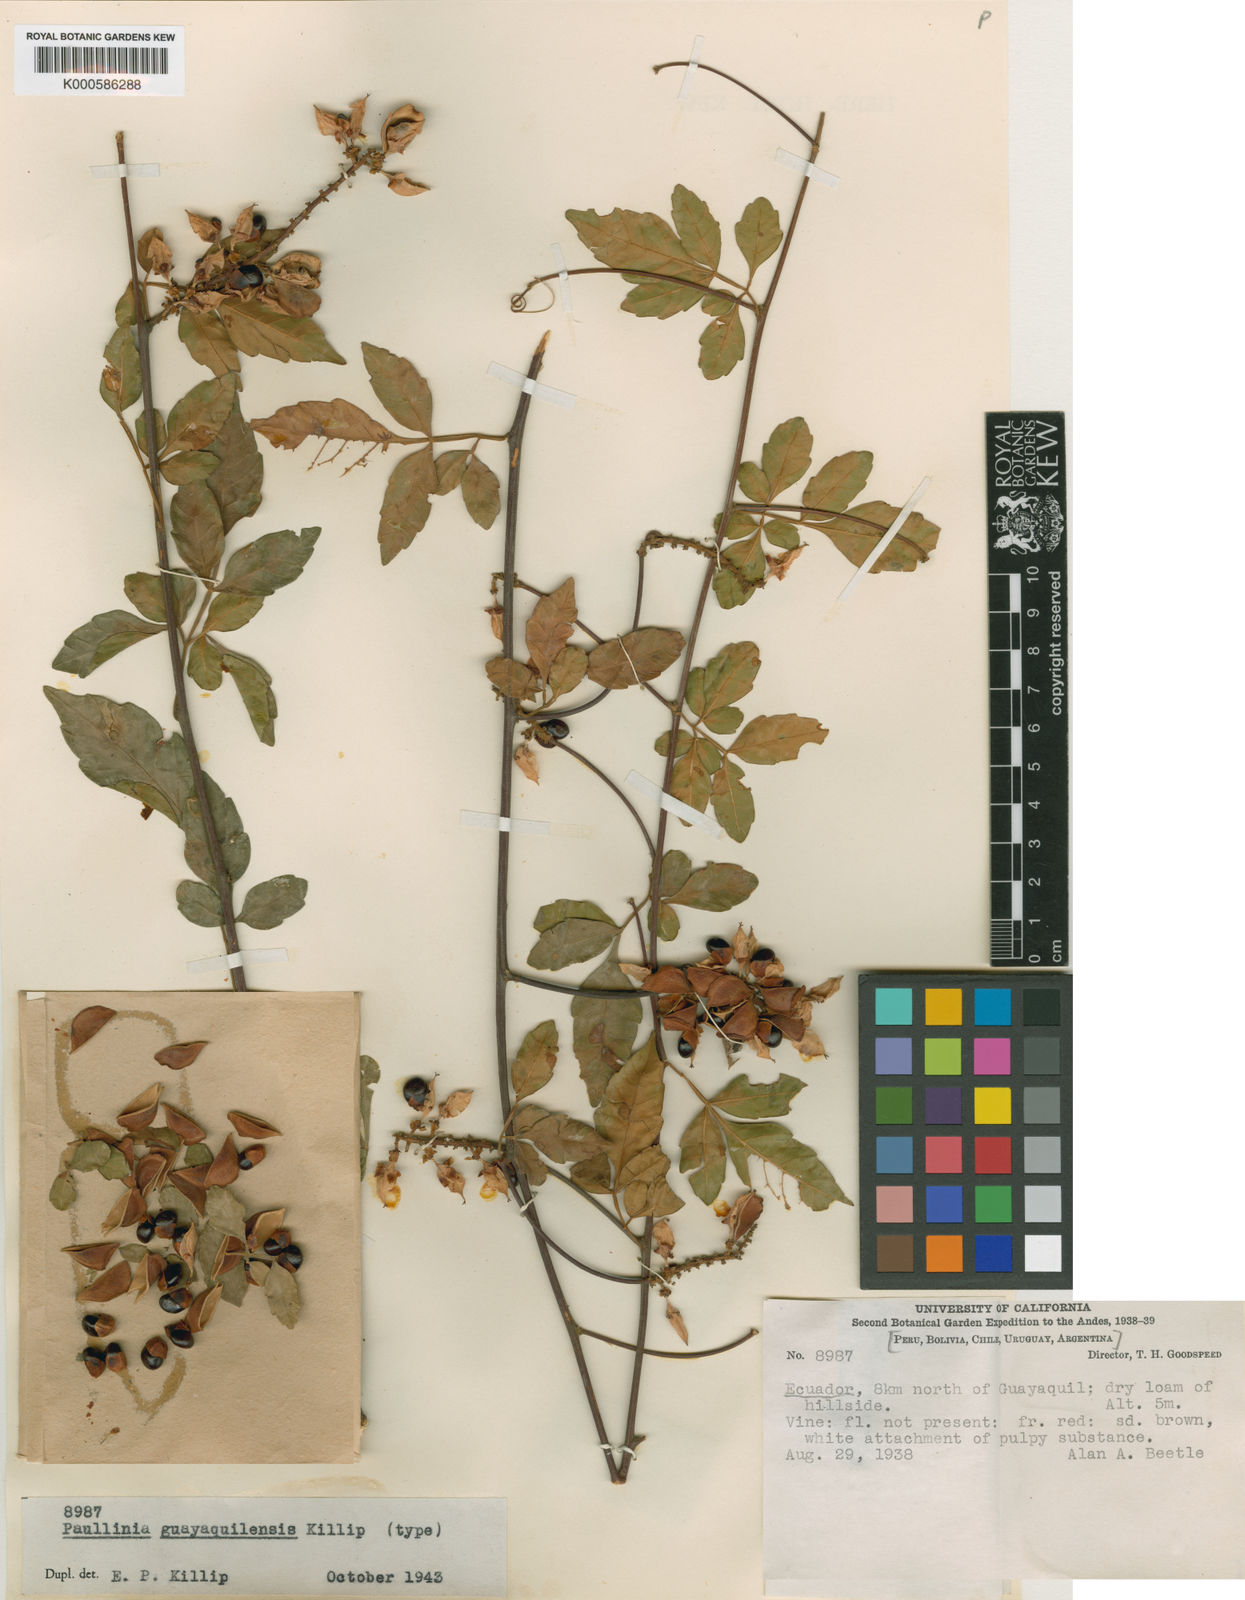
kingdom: Plantae
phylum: Tracheophyta
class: Magnoliopsida
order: Sapindales
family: Sapindaceae
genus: Paullinia
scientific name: Paullinia
